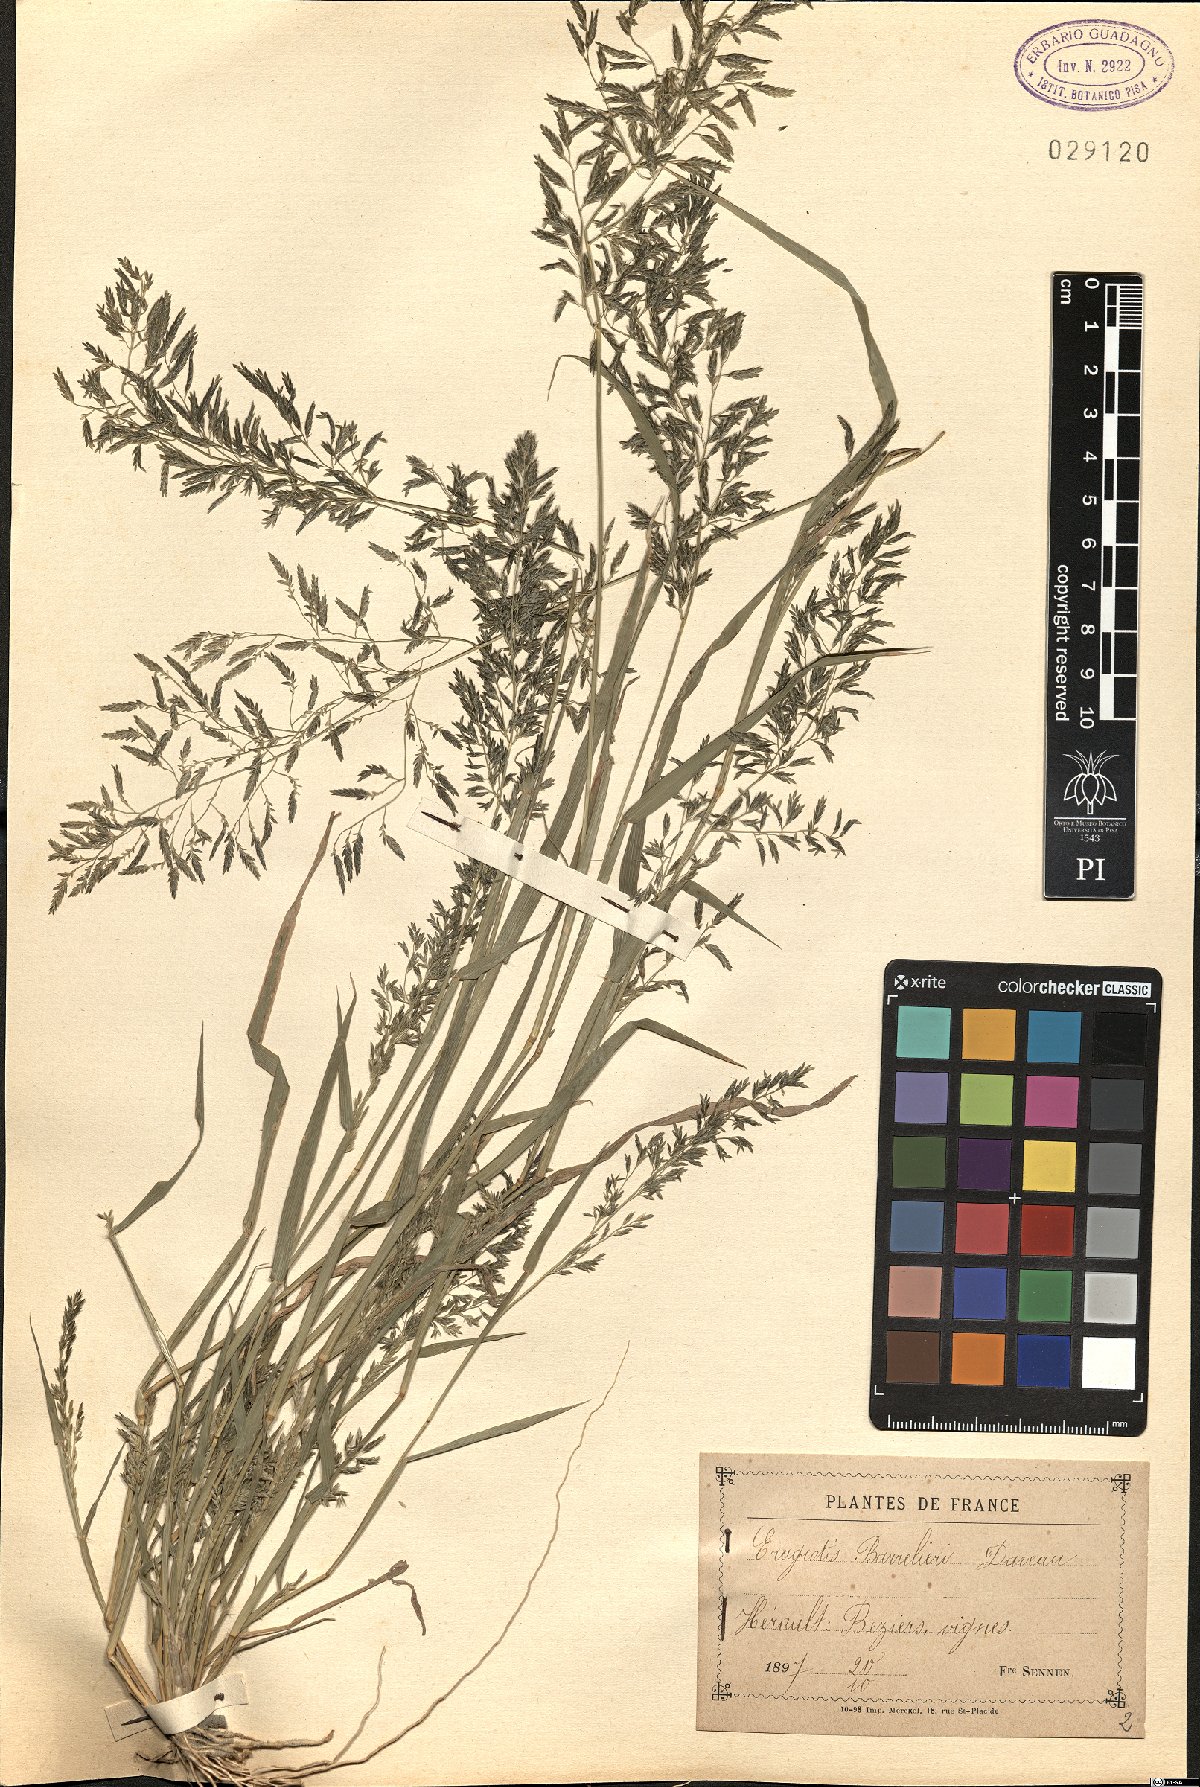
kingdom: Plantae
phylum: Tracheophyta
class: Liliopsida
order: Poales
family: Poaceae
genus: Eragrostis
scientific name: Eragrostis barrelieri
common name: Mediterranean lovegrass
